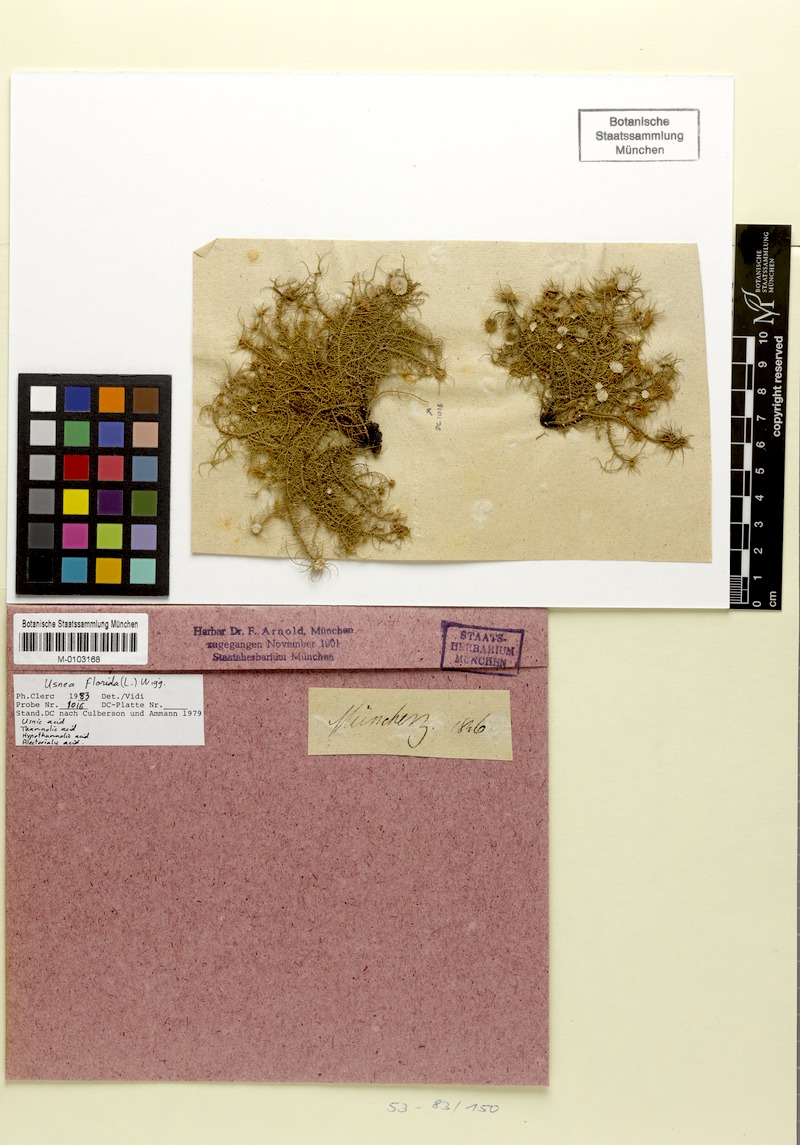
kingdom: Fungi
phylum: Ascomycota
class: Lecanoromycetes
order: Lecanorales
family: Parmeliaceae
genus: Usnea
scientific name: Usnea florida
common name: Witches' whiskers lichen
